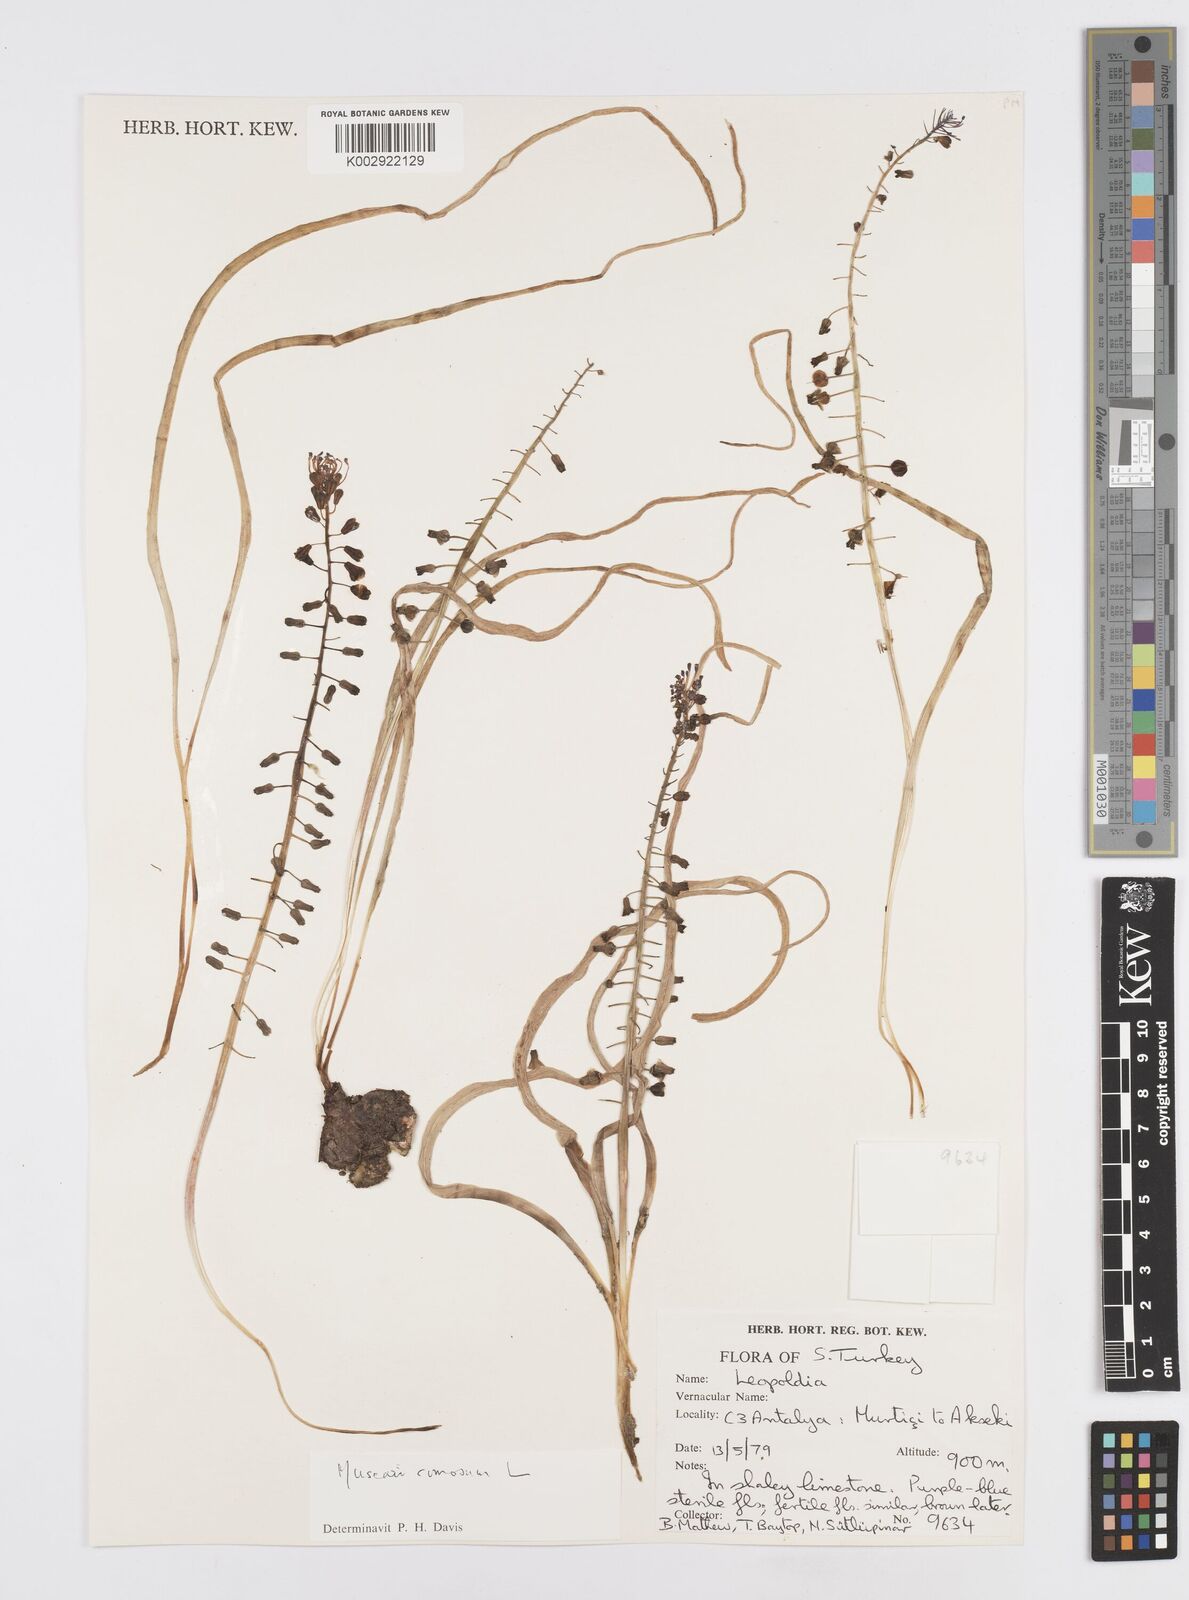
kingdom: Plantae
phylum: Tracheophyta
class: Liliopsida
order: Asparagales
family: Asparagaceae
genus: Muscari
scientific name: Muscari comosum
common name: Tassel hyacinth
